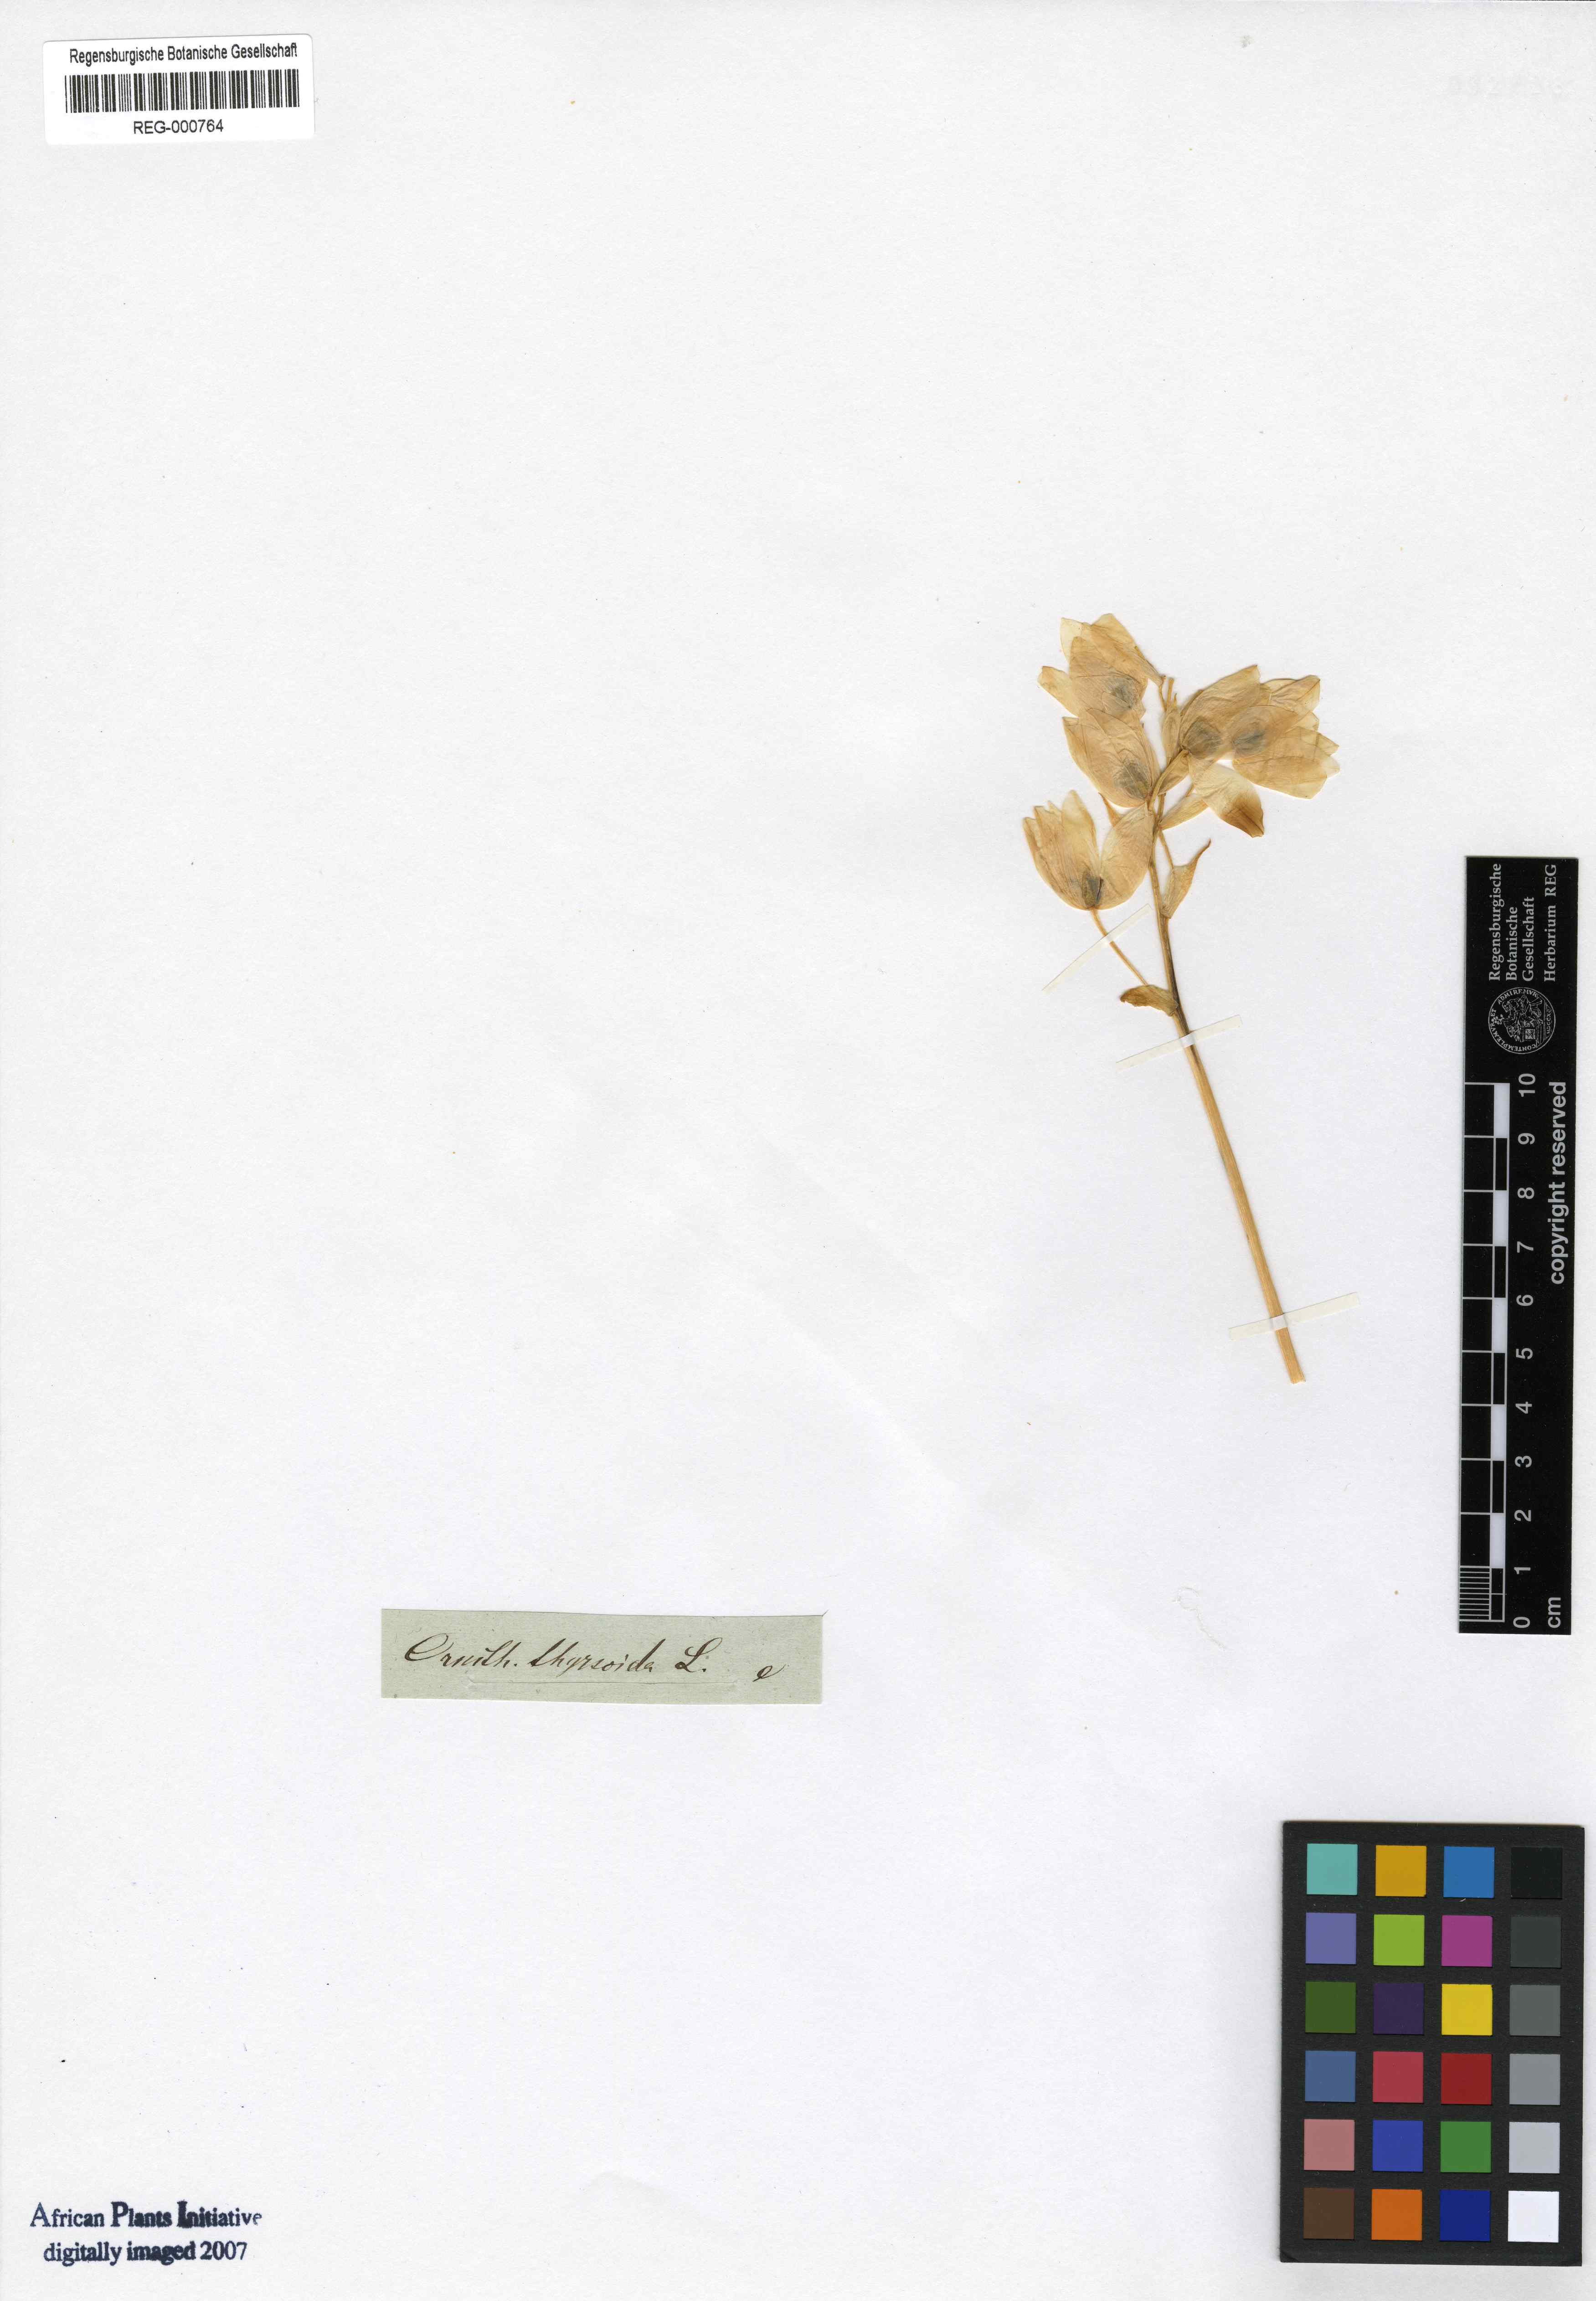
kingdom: Plantae
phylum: Tracheophyta
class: Liliopsida
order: Asparagales
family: Asparagaceae
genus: Ornithogalum
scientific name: Ornithogalum
